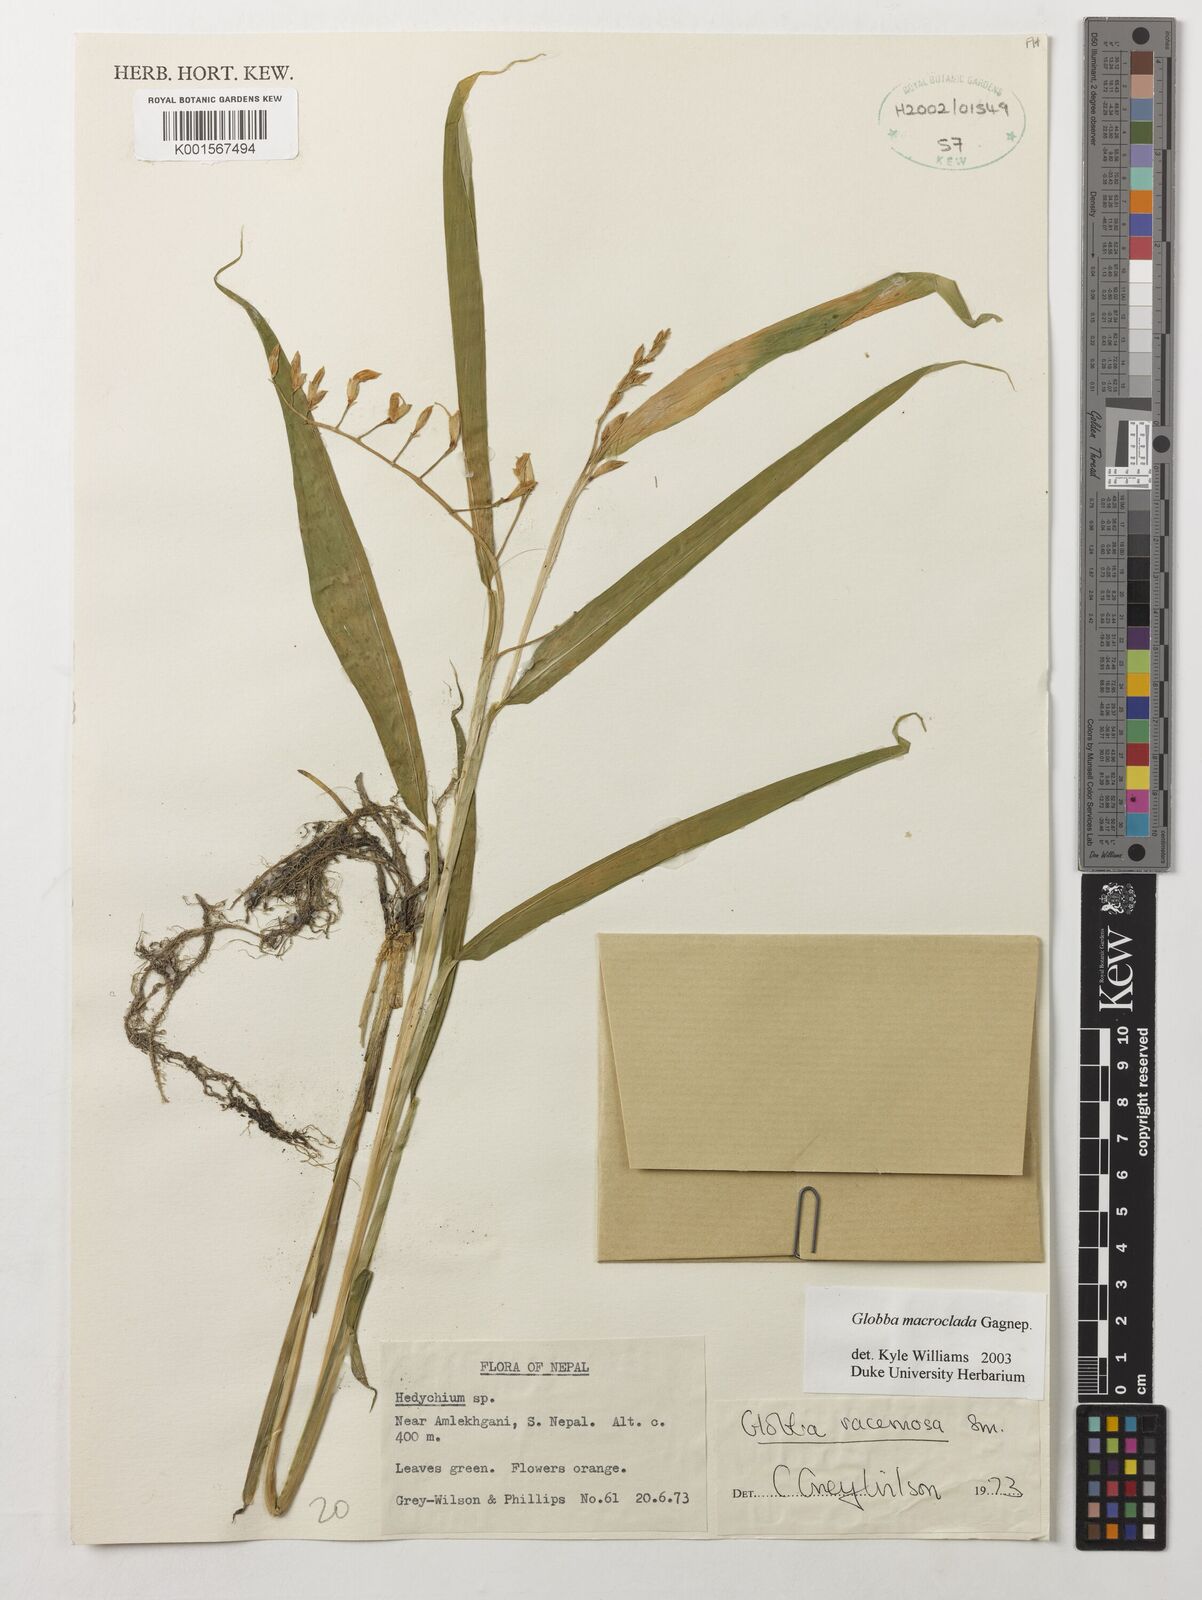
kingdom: Plantae
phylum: Tracheophyta
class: Liliopsida
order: Zingiberales
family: Zingiberaceae
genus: Globba
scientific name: Globba macroclada
